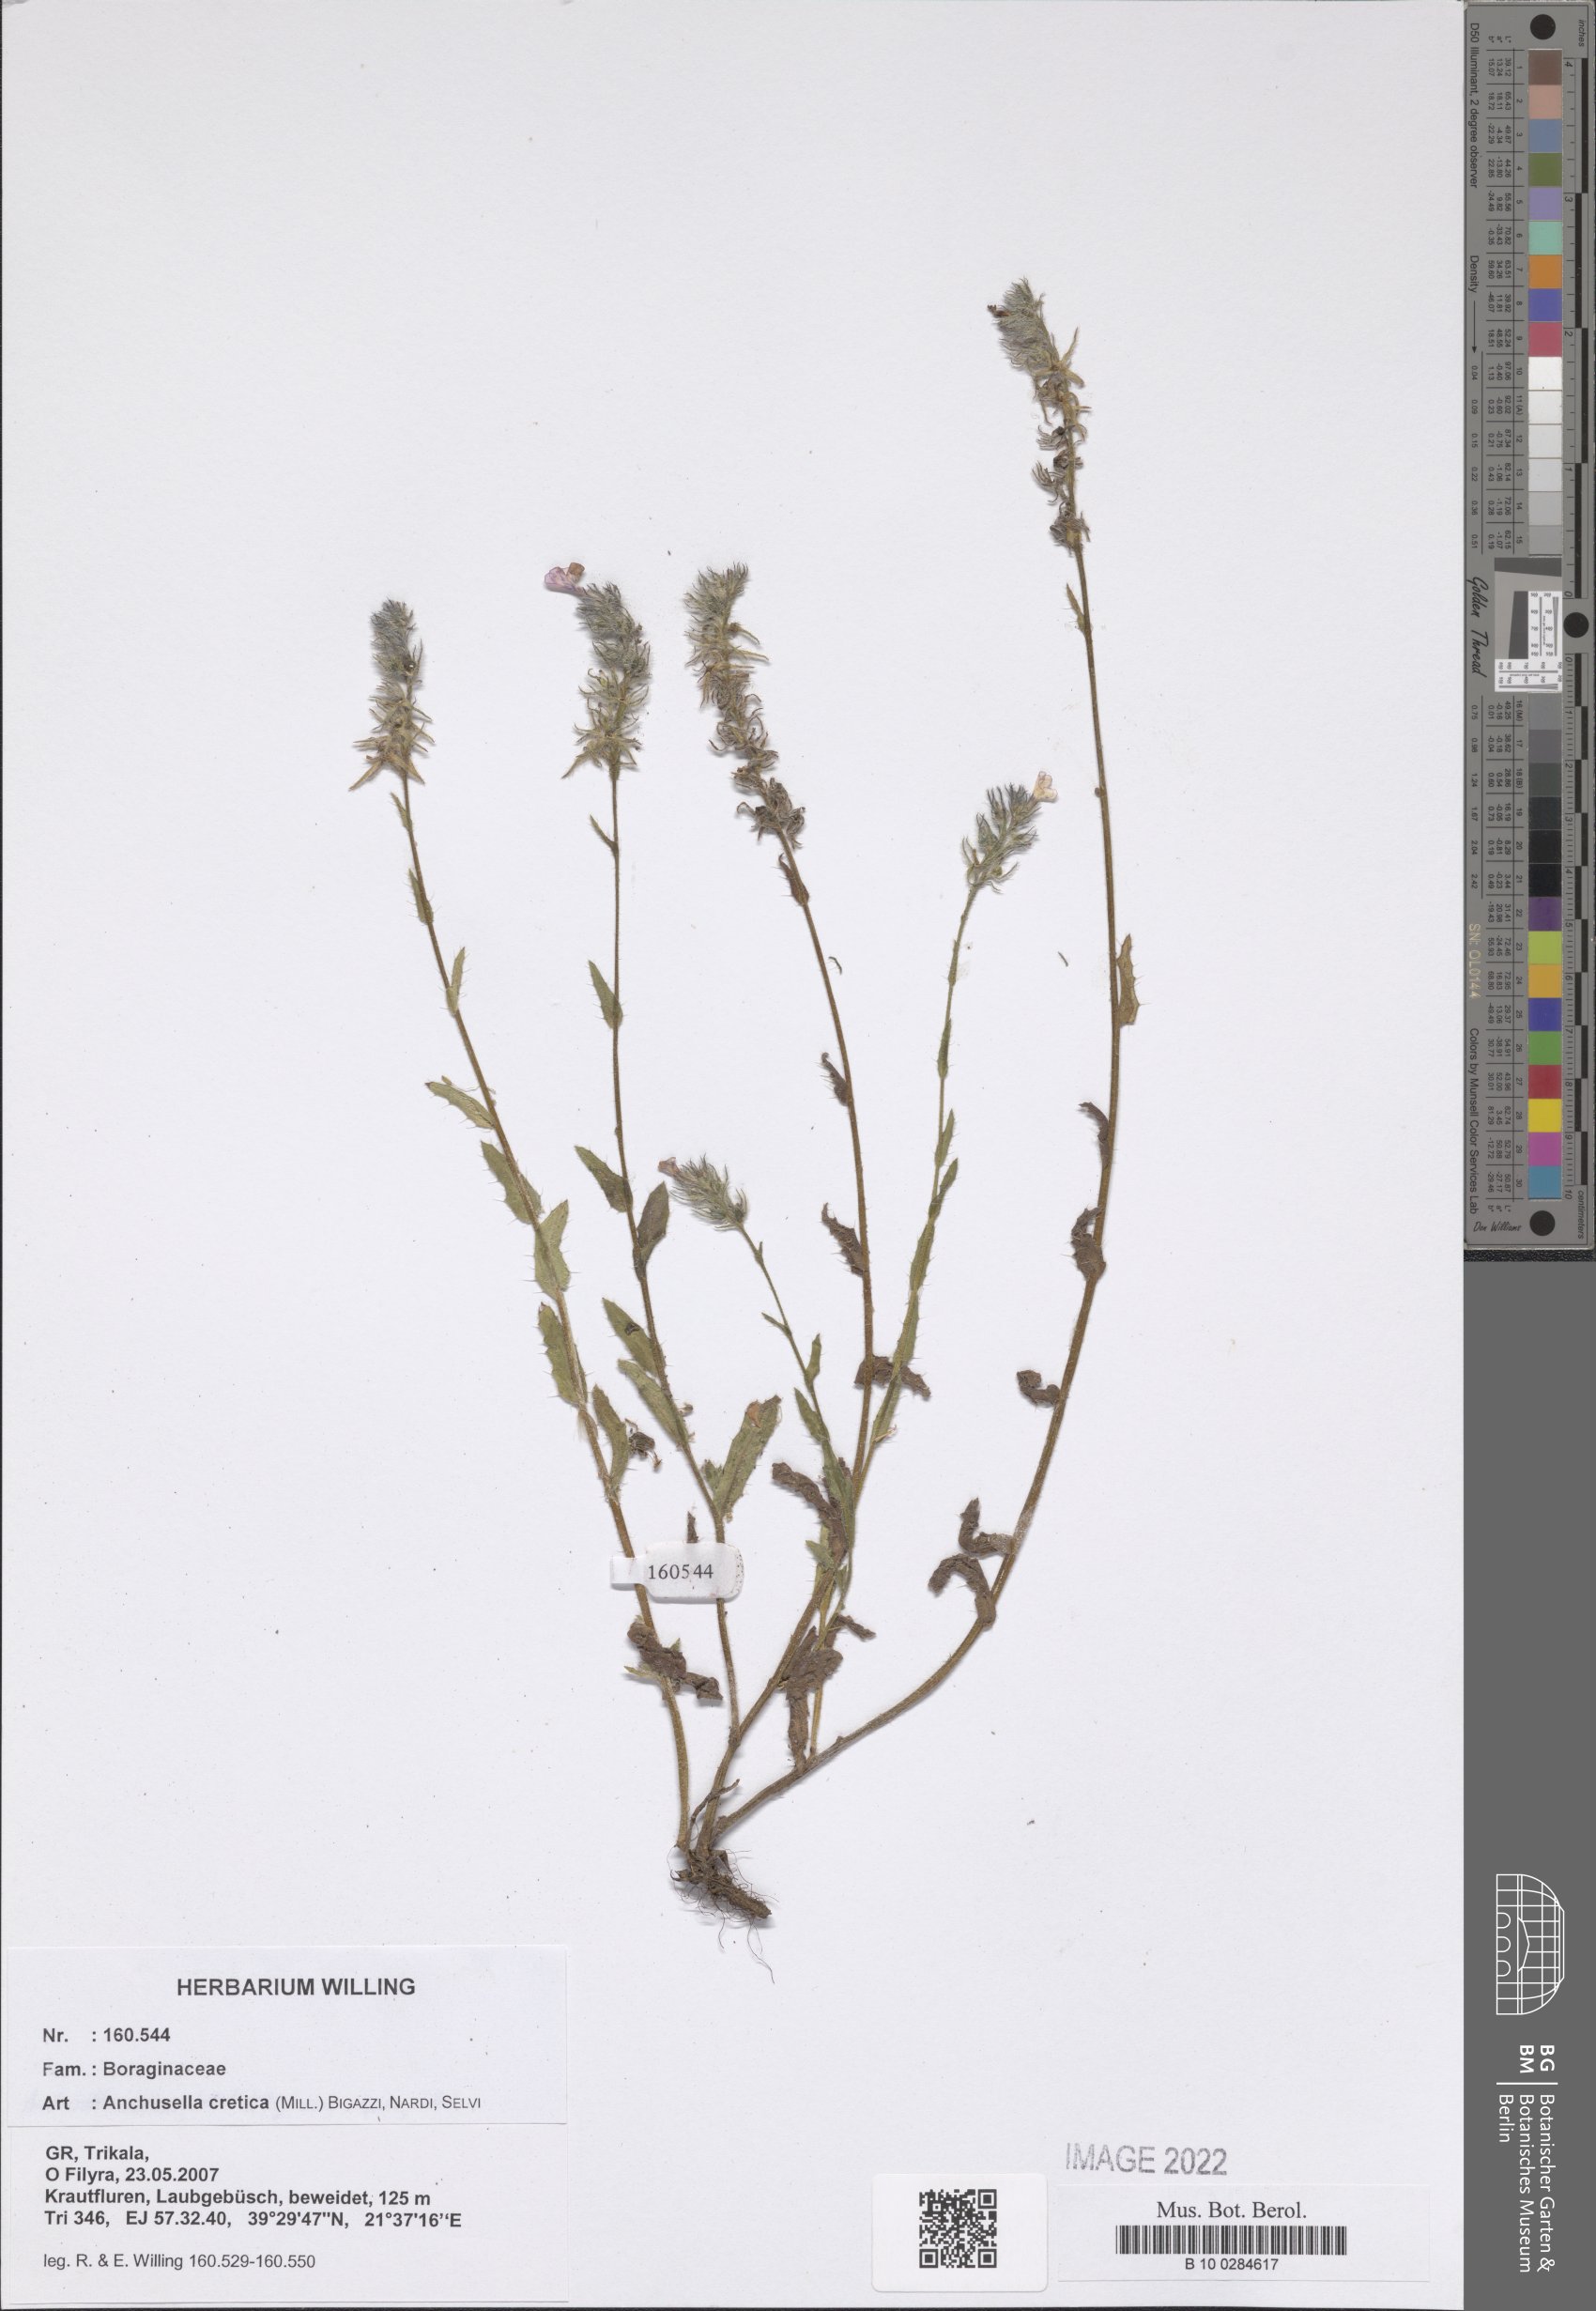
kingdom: Plantae
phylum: Tracheophyta
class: Magnoliopsida
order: Boraginales
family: Boraginaceae
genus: Lycopsis
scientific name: Lycopsis arvensis
